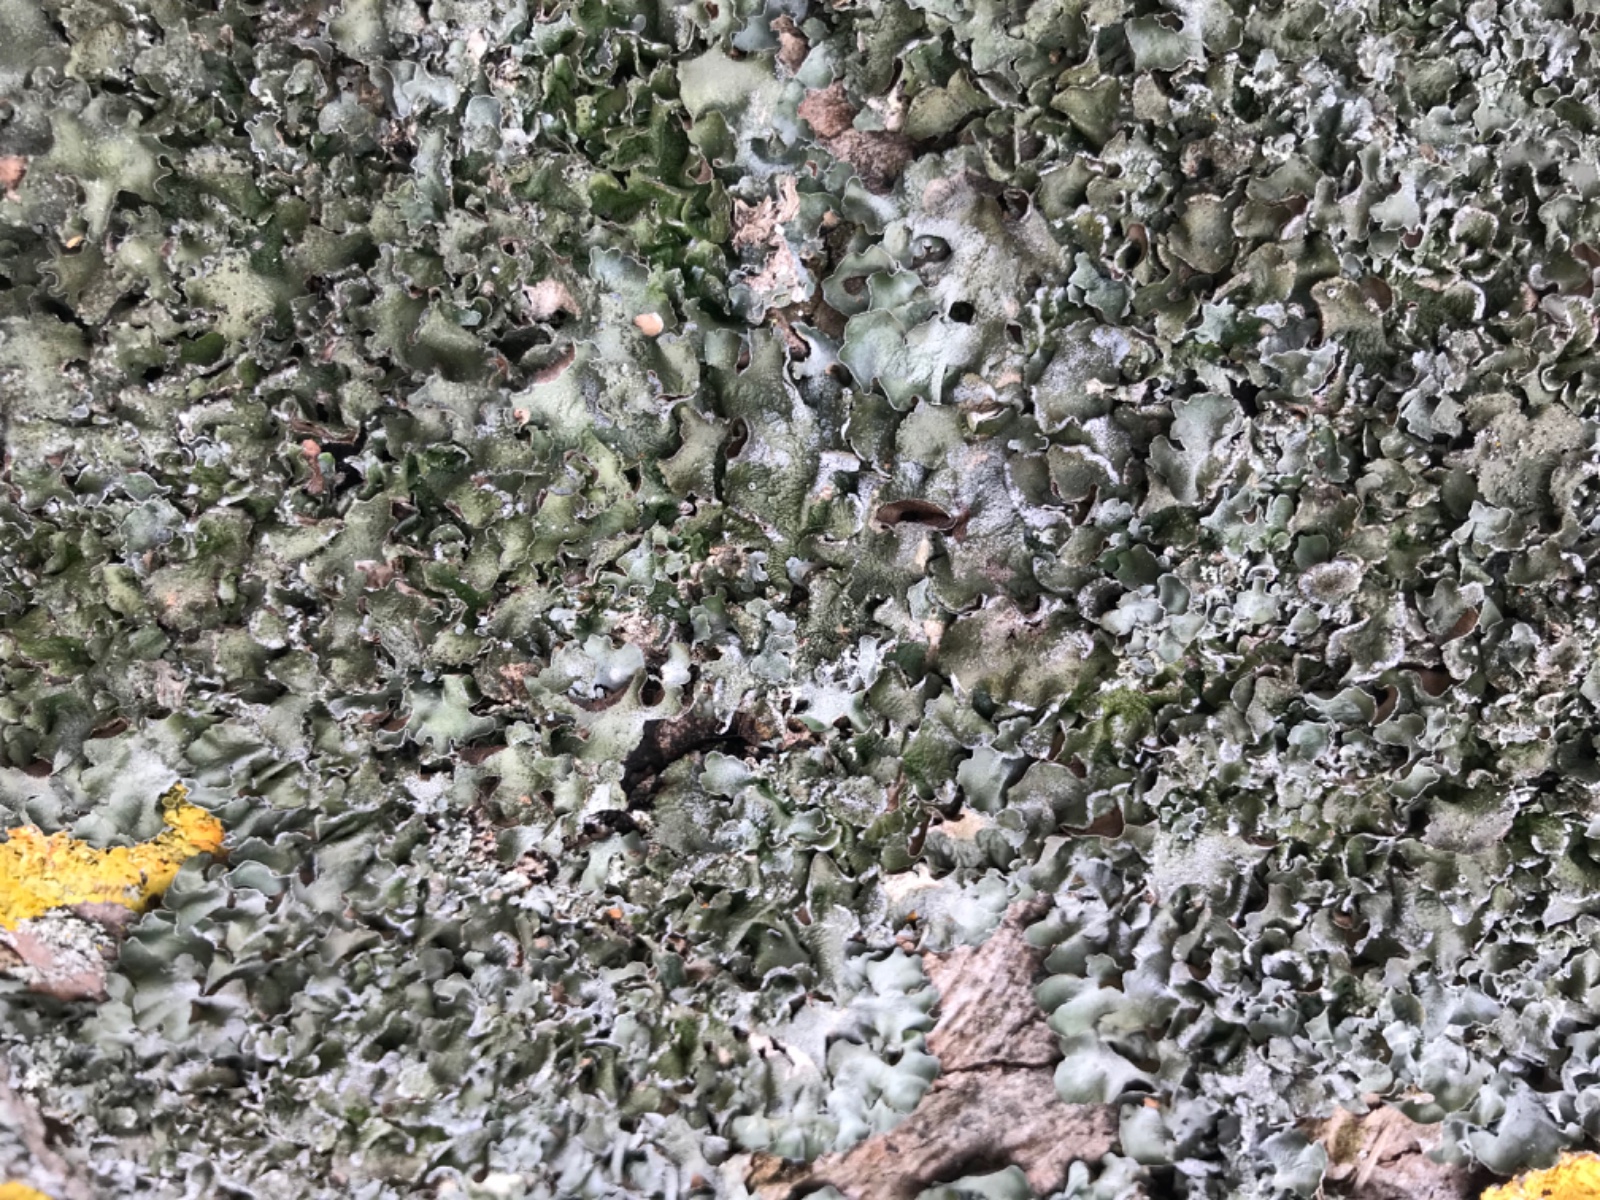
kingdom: Fungi
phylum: Ascomycota
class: Lecanoromycetes
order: Lecanorales
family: Parmeliaceae
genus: Pleurosticta
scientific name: Pleurosticta acetabulum
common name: stor skållav
